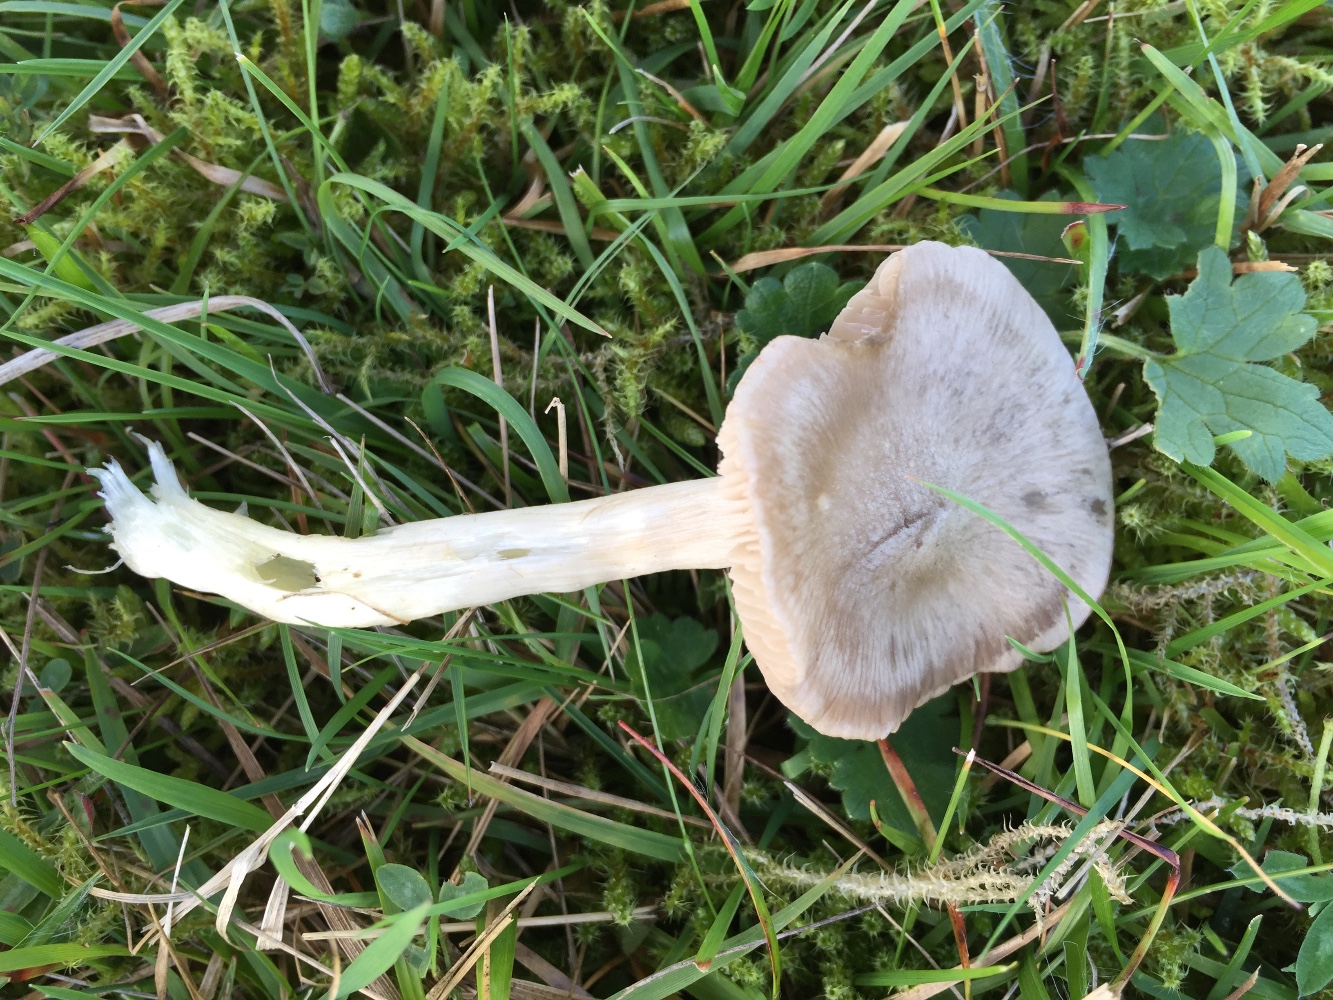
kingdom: Fungi
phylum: Basidiomycota
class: Agaricomycetes
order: Agaricales
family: Entolomataceae
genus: Entoloma
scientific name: Entoloma prunuloides
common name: mel-rødblad
